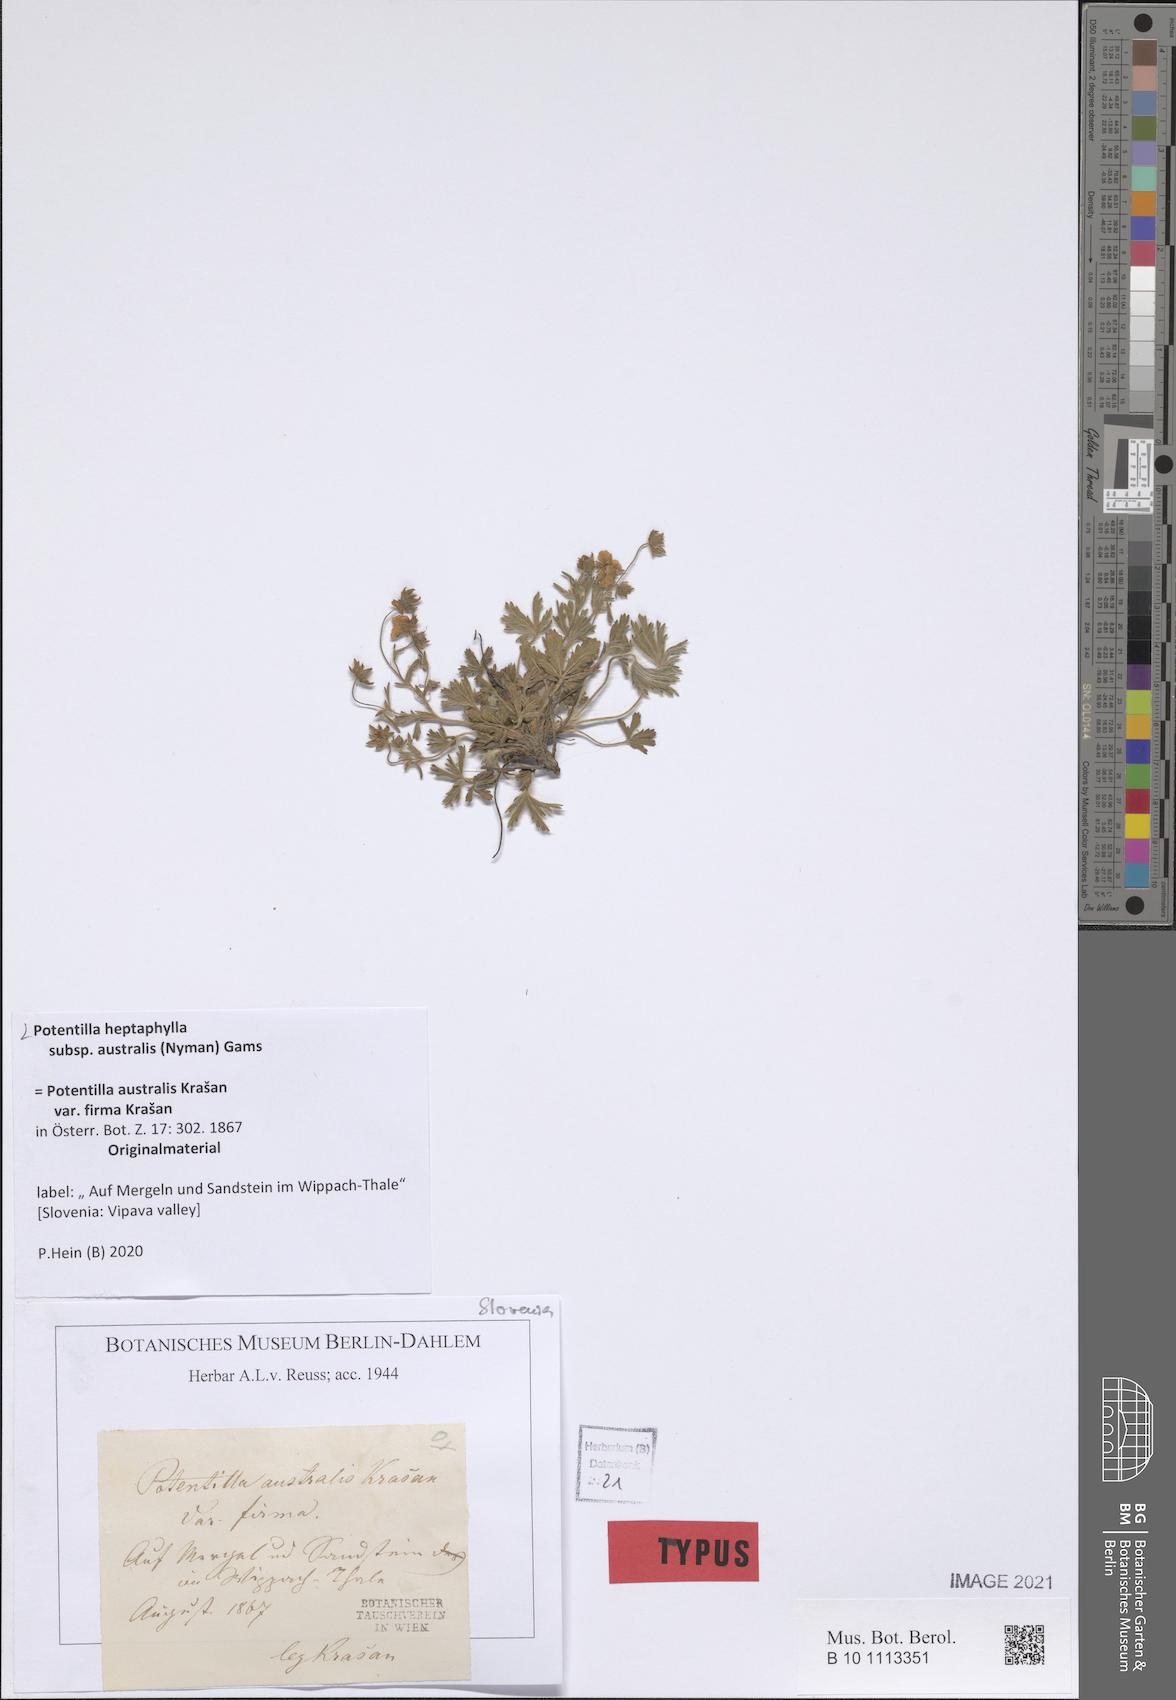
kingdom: Plantae
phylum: Tracheophyta
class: Magnoliopsida
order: Rosales
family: Rosaceae
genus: Potentilla
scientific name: Potentilla heptaphylla
